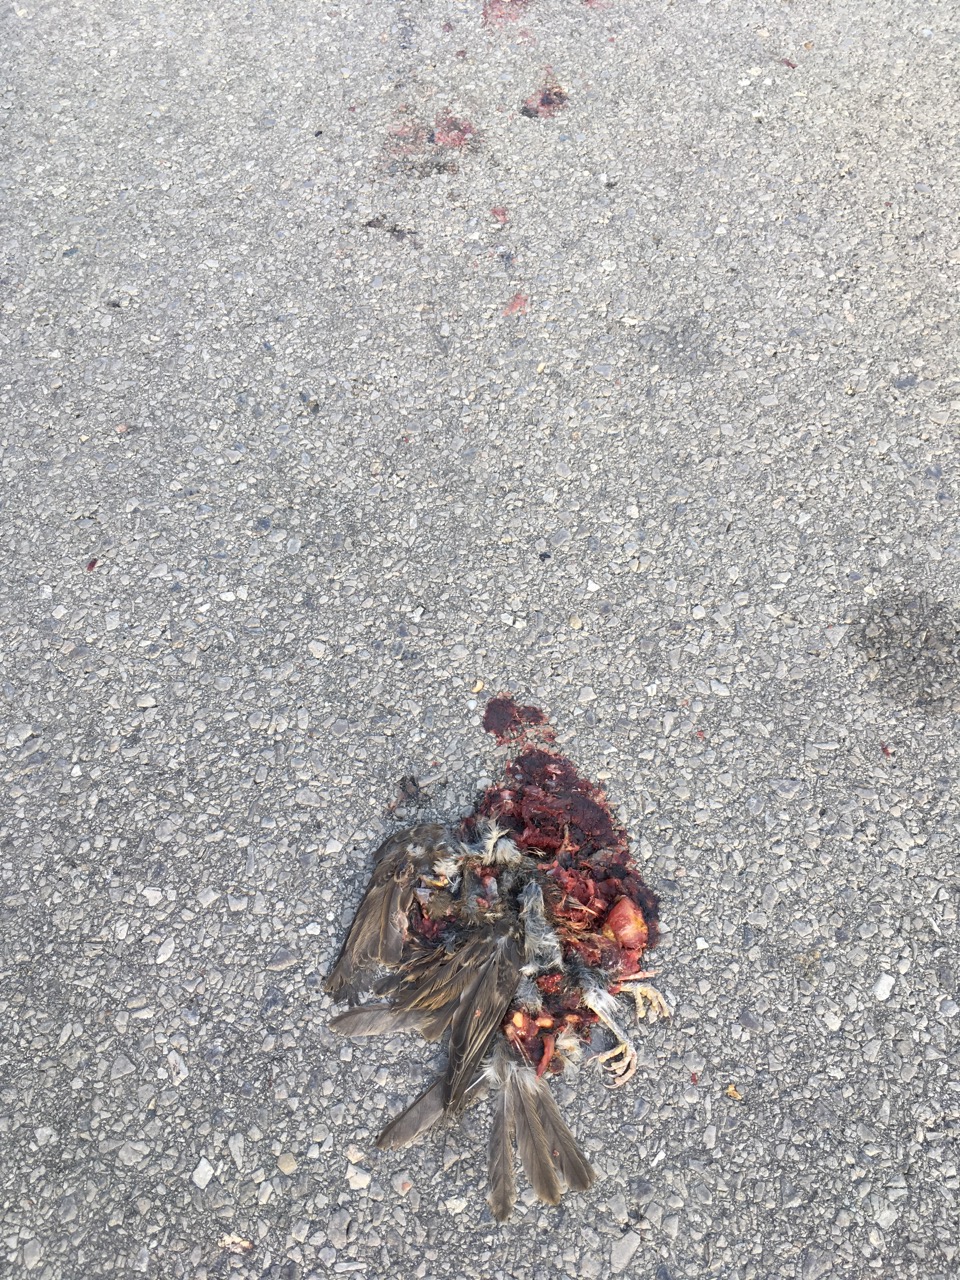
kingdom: Animalia
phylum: Chordata
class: Aves
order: Passeriformes
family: Passeridae
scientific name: Passeridae
